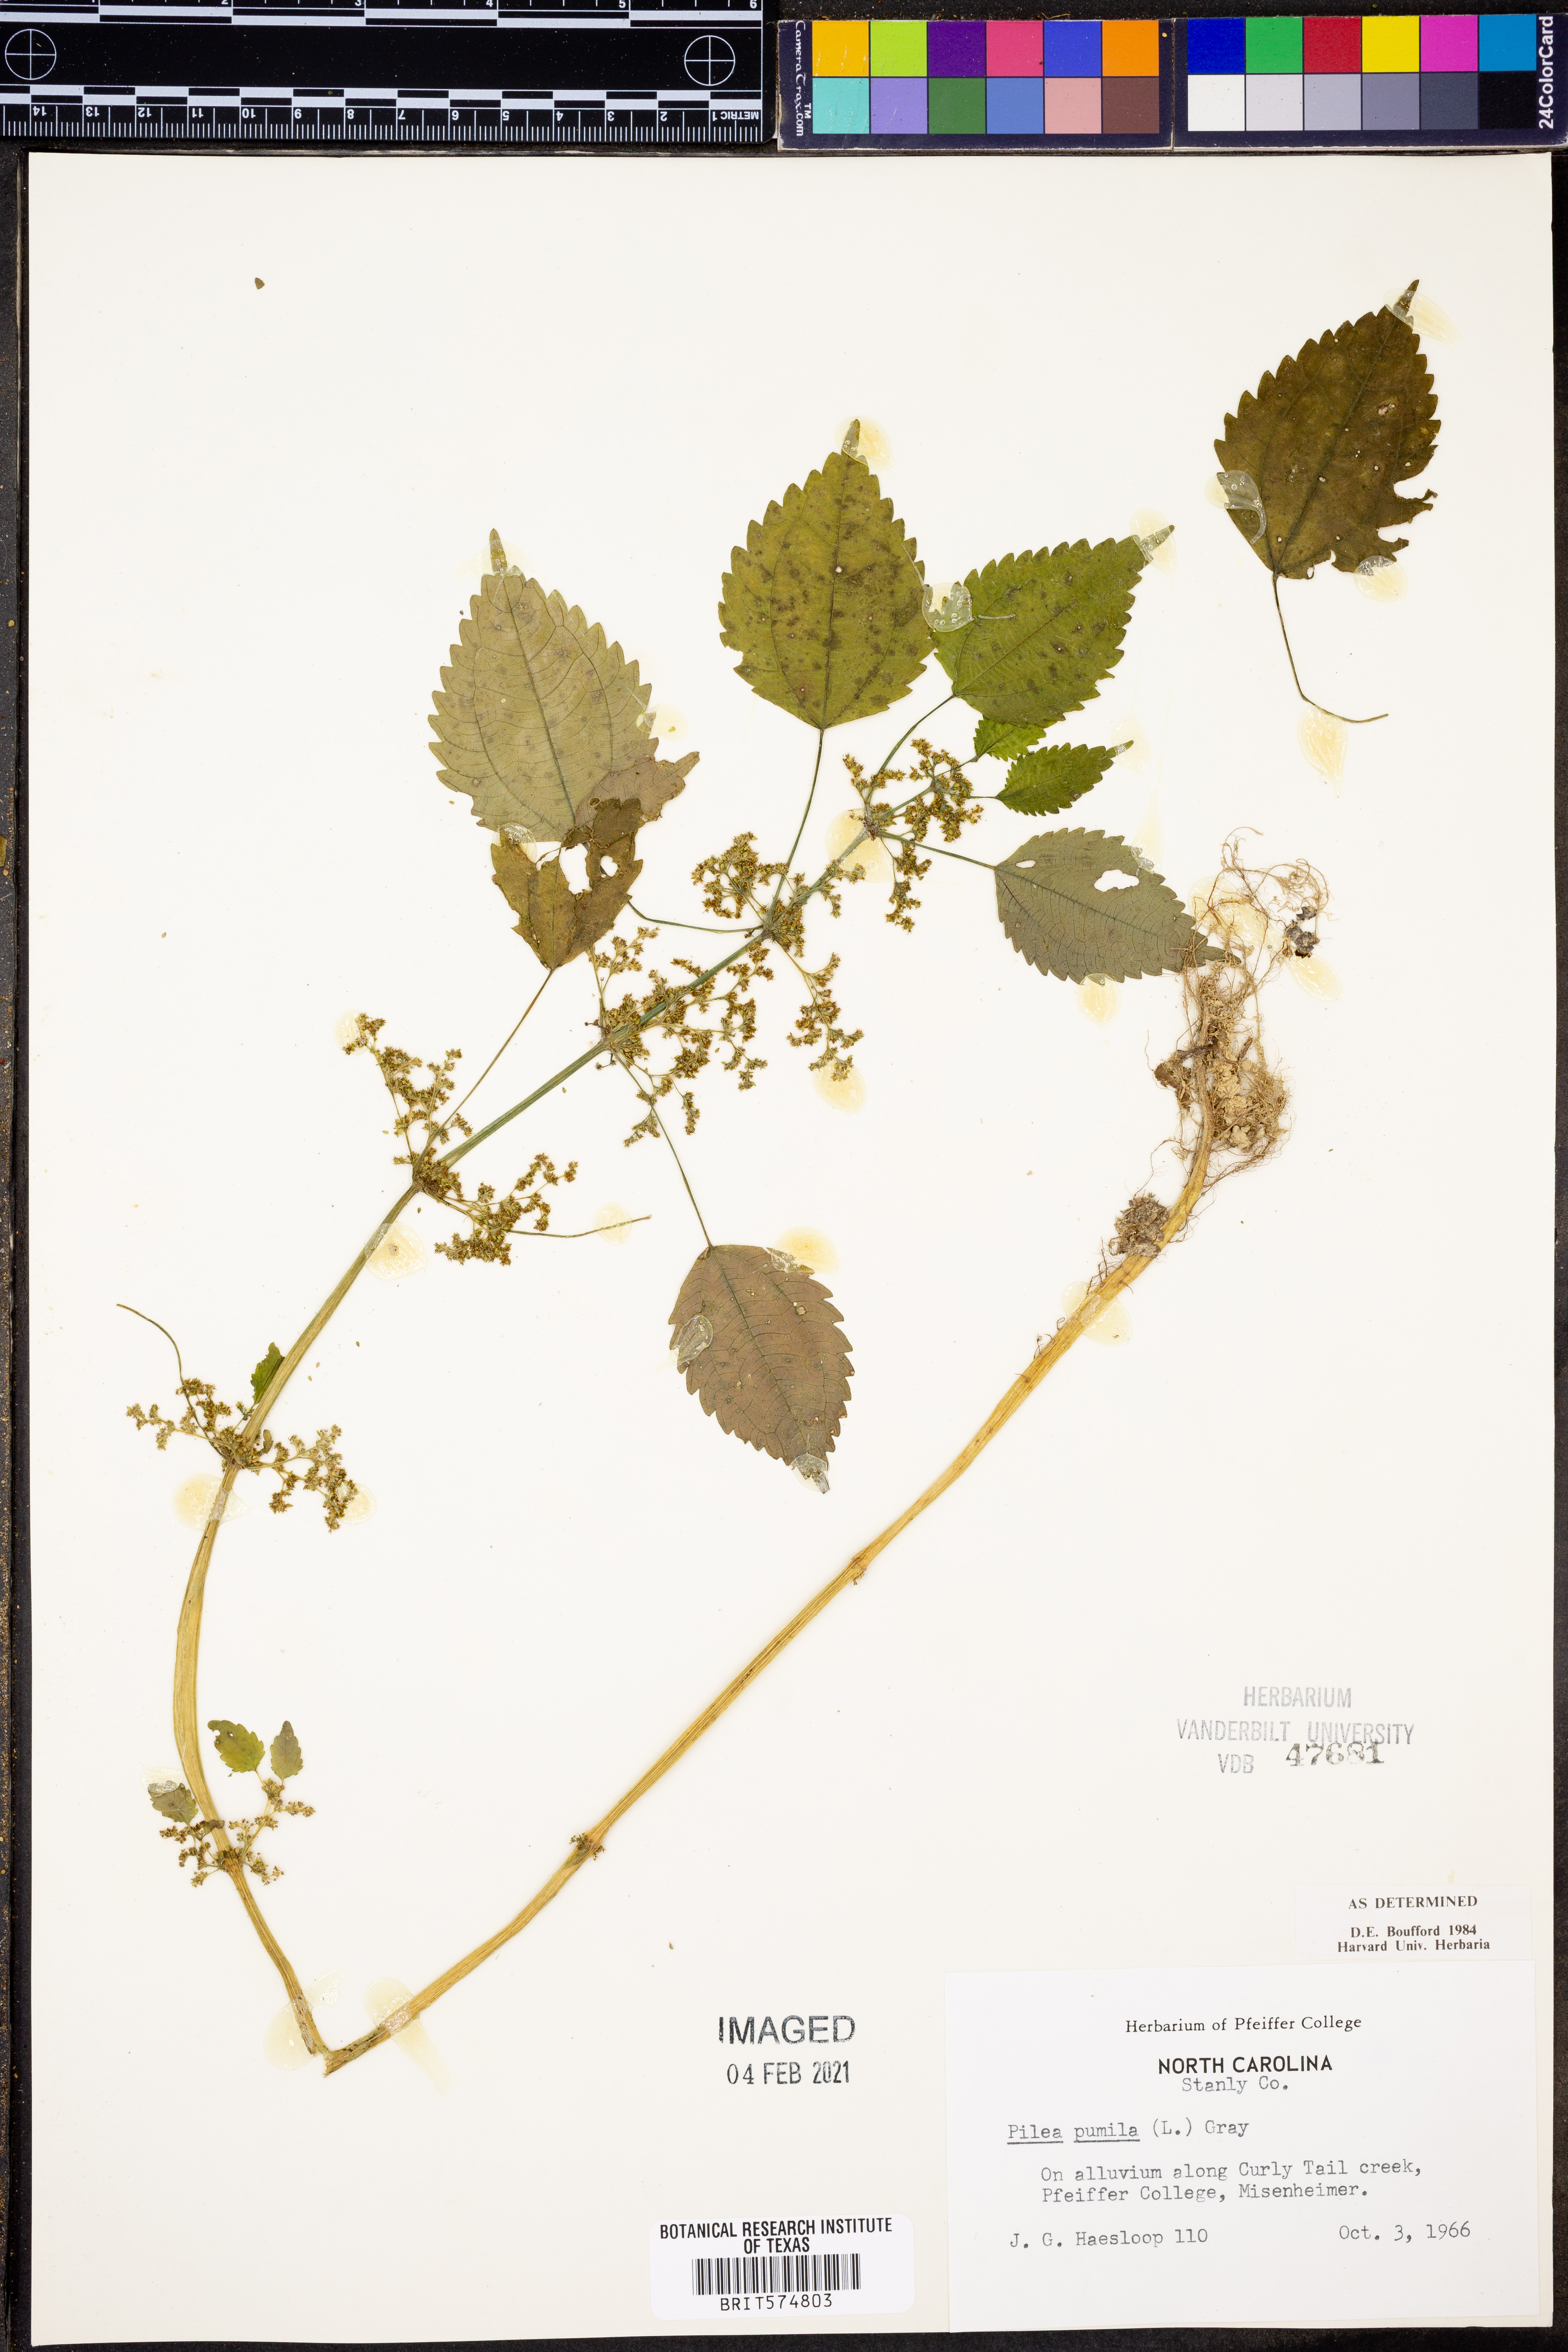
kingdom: Plantae
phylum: Tracheophyta
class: Magnoliopsida
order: Rosales
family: Urticaceae
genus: Pilea
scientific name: Pilea pumila
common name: Clearweed
